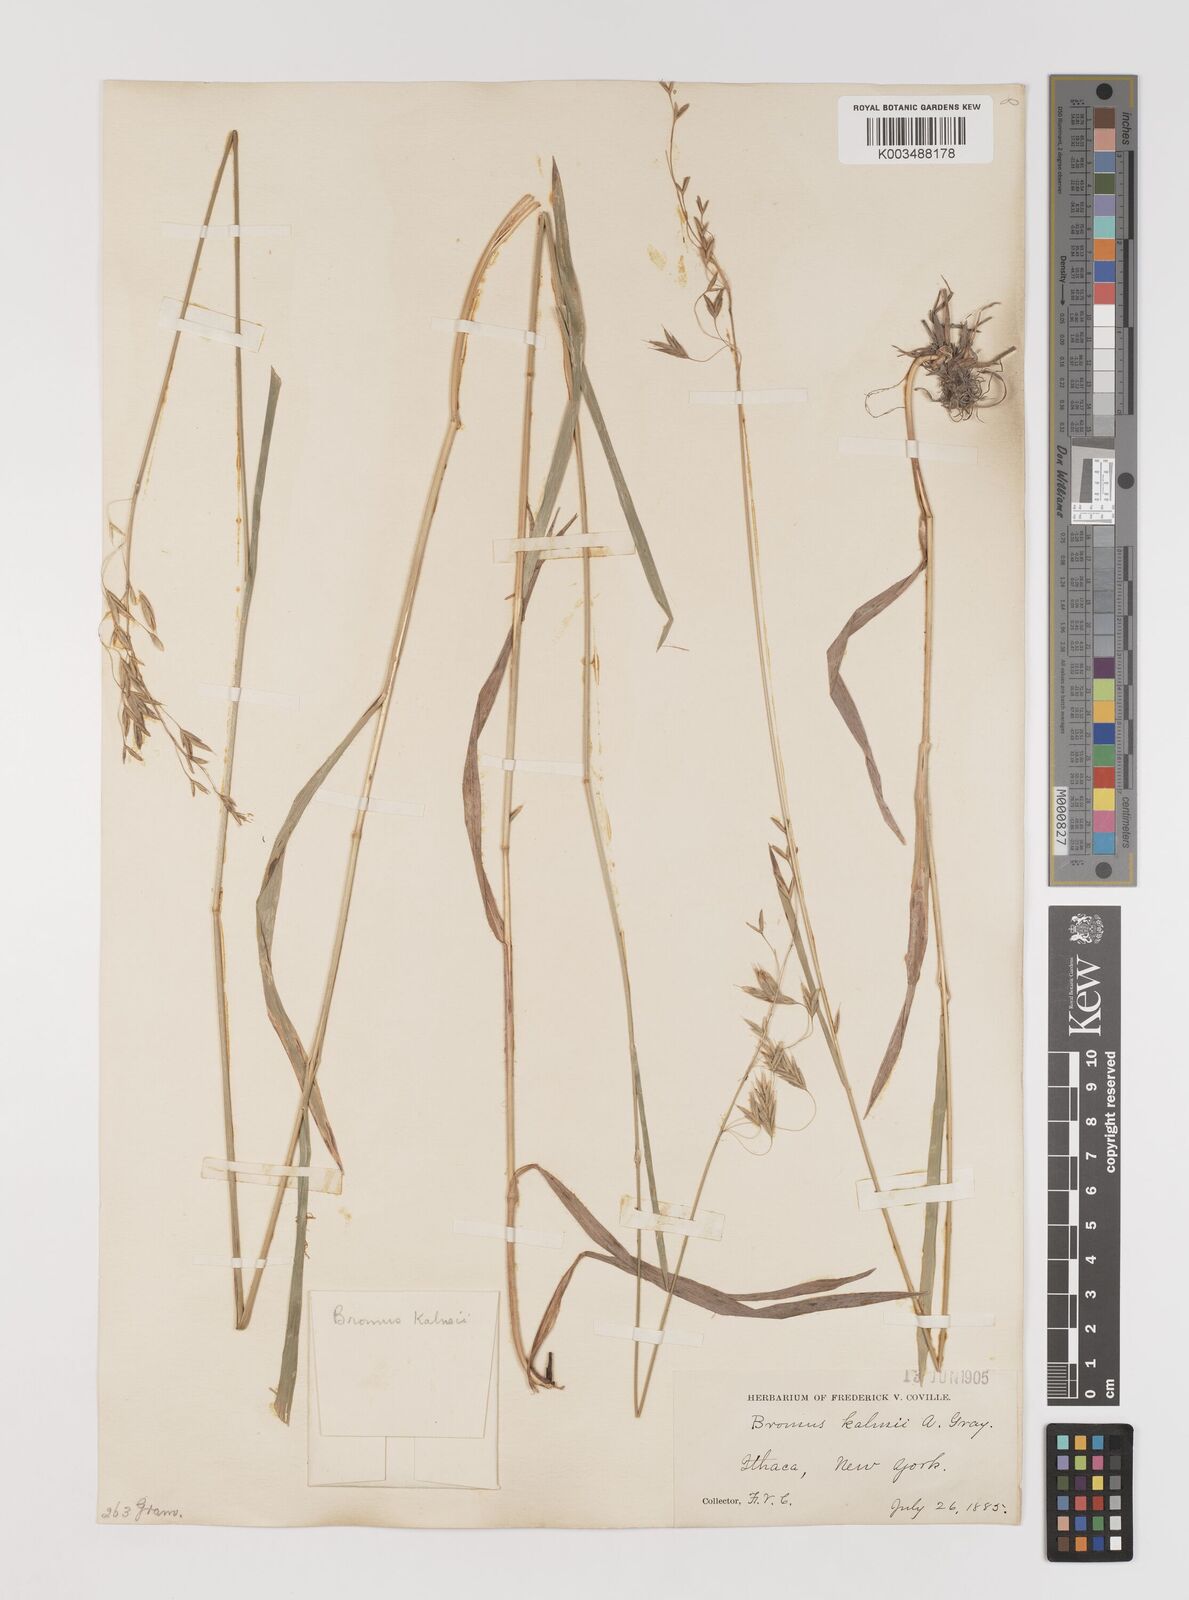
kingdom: Plantae
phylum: Tracheophyta
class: Liliopsida
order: Poales
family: Poaceae
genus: Bromus
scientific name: Bromus kalmii
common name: Kalm brome
